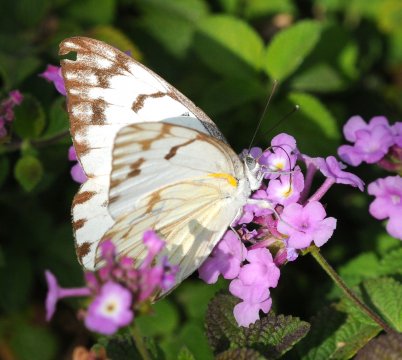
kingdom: Animalia
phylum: Arthropoda
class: Insecta
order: Lepidoptera
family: Pieridae
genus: Belenois
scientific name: Belenois gidica
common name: African Veined White
